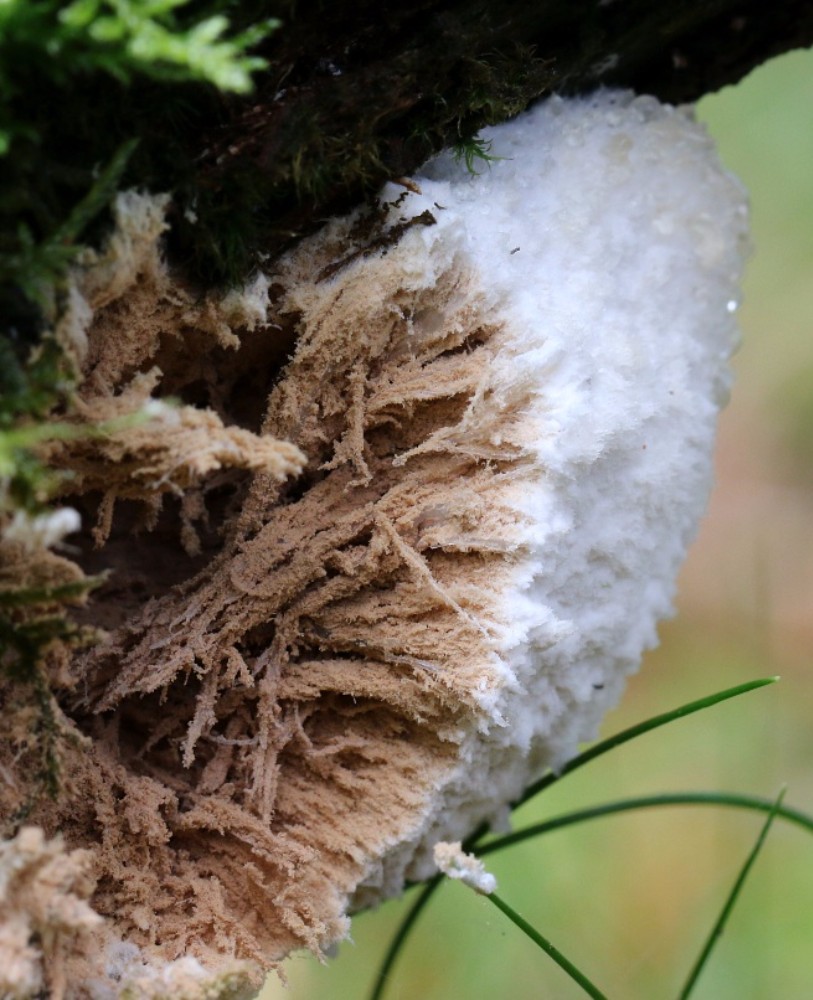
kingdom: Fungi
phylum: Basidiomycota
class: Agaricomycetes
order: Polyporales
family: Dacryobolaceae
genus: Postia
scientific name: Postia ptychogaster
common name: støvende kødporesvamp
